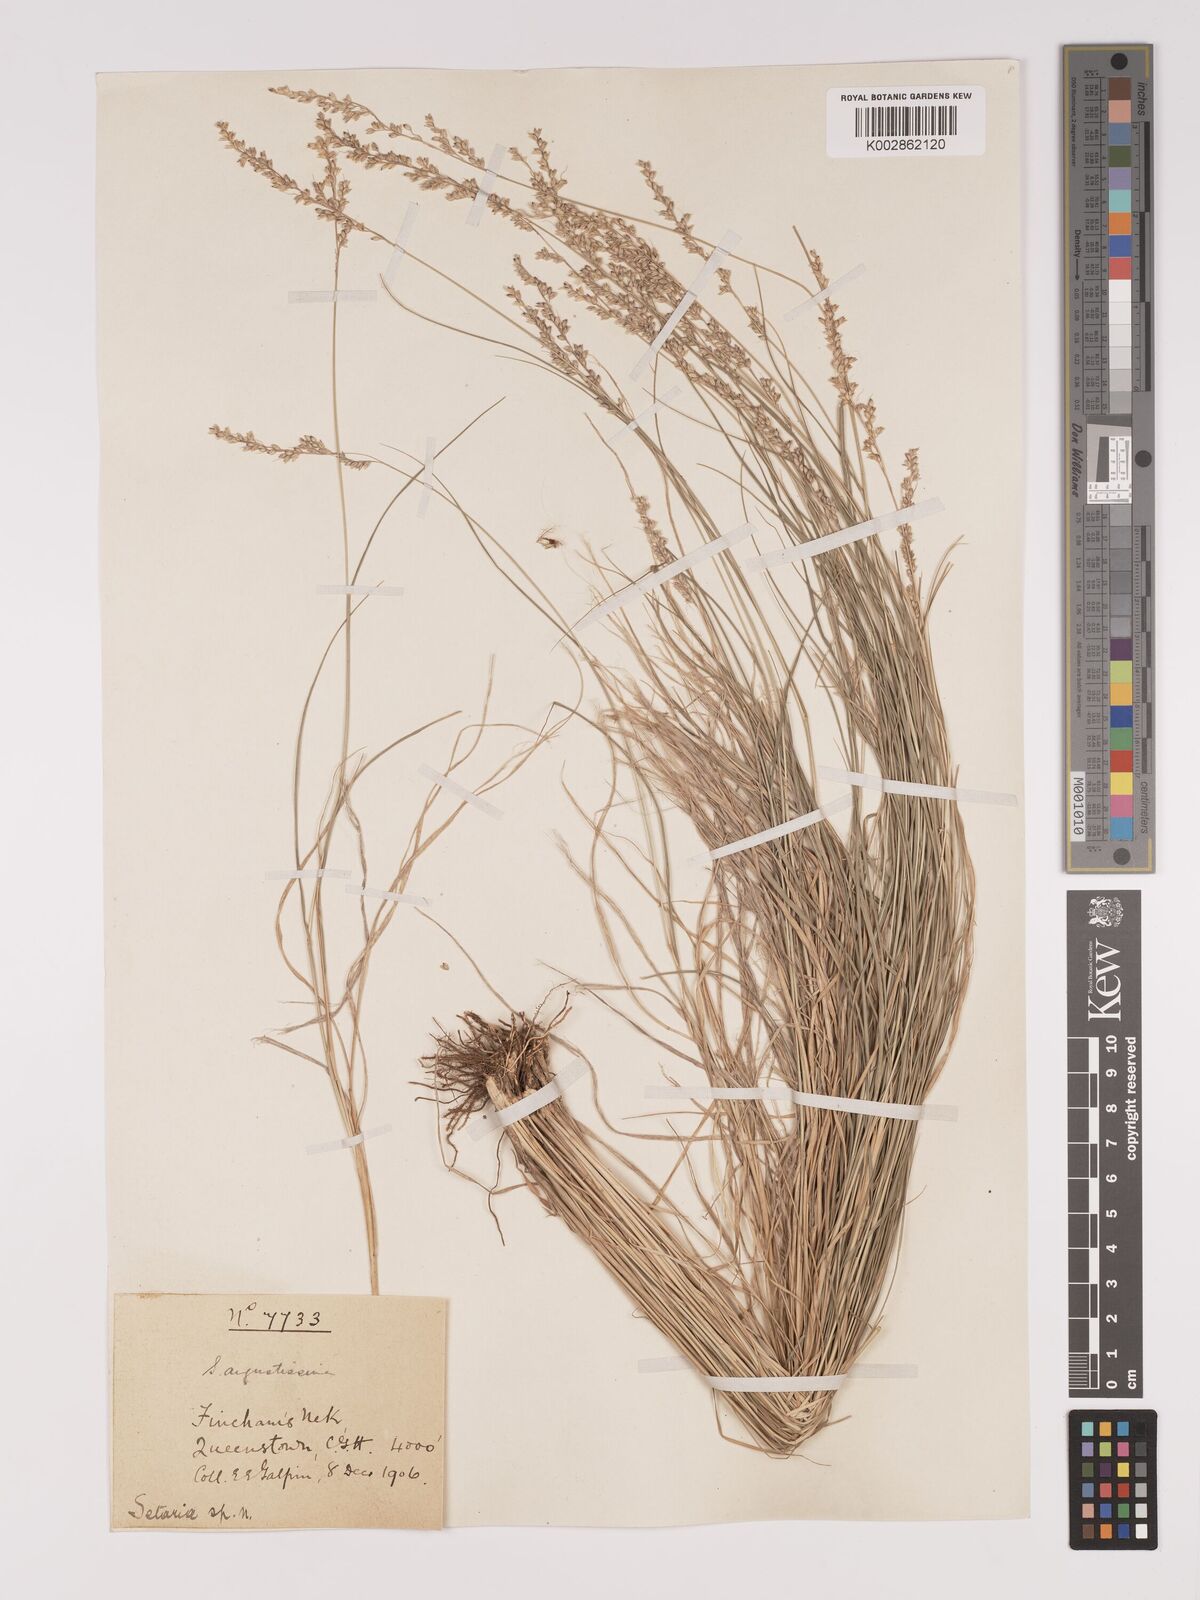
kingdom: Plantae
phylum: Tracheophyta
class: Liliopsida
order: Poales
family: Poaceae
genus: Setaria
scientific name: Setaria lindenbergiana
